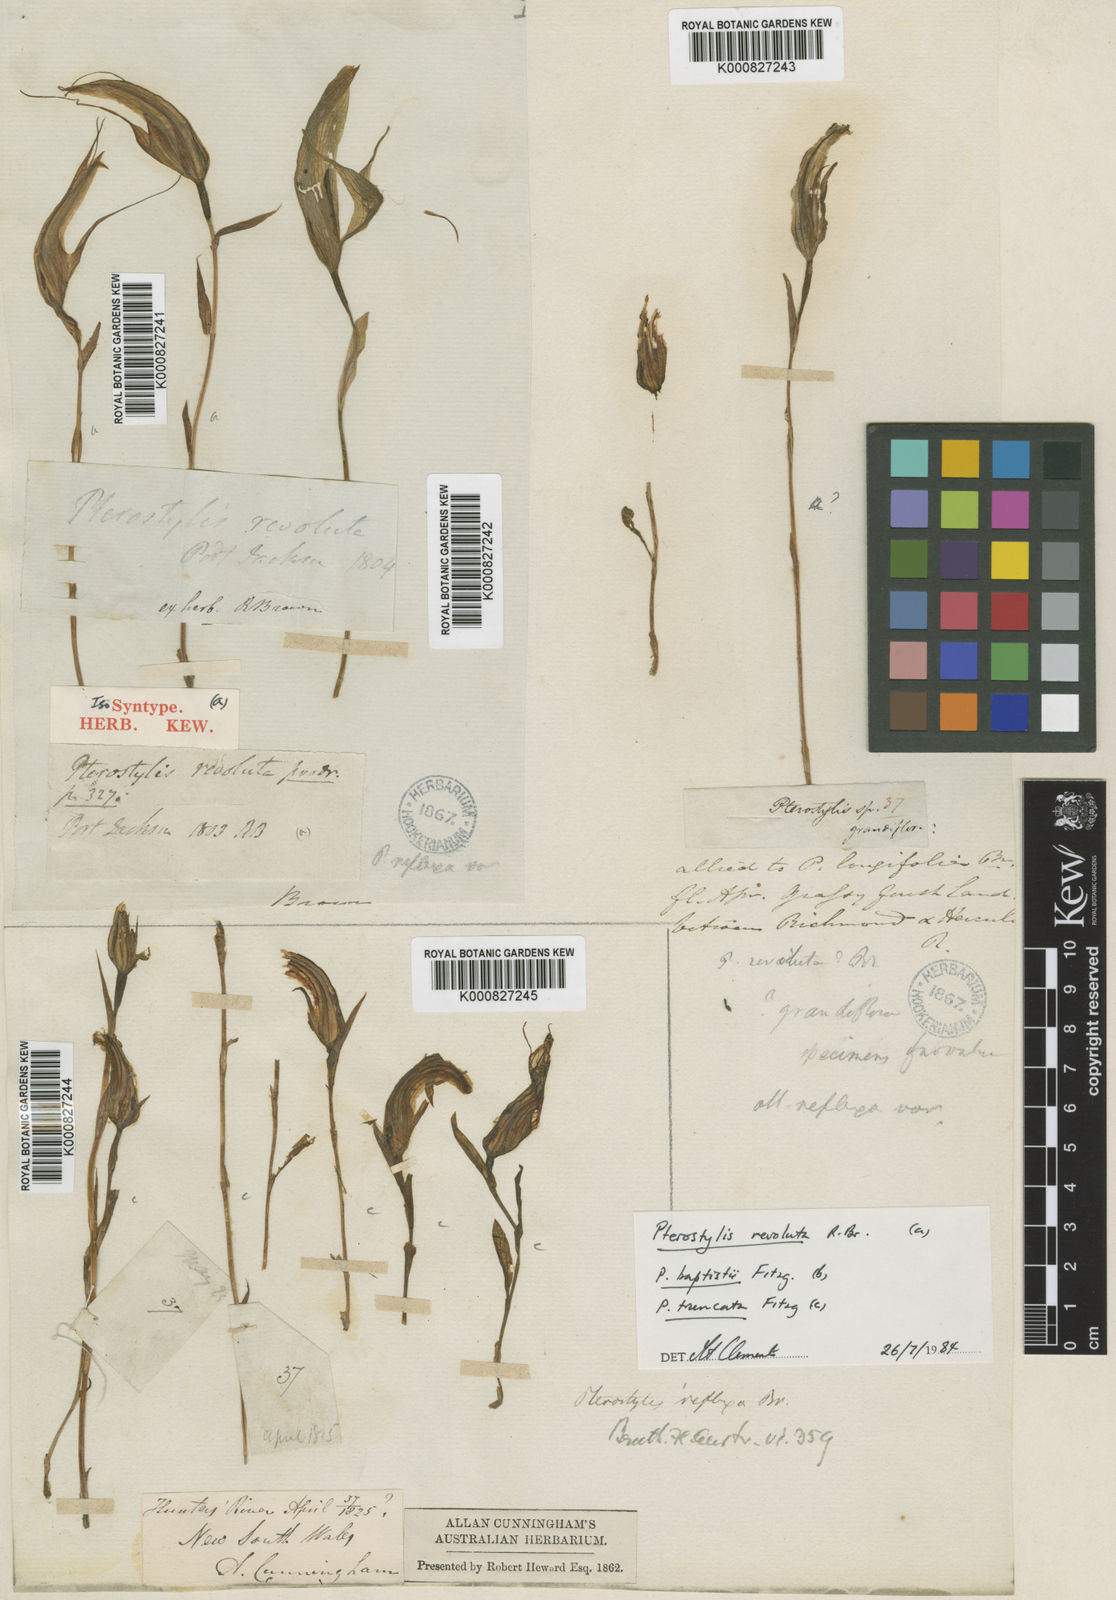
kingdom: Plantae
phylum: Tracheophyta
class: Liliopsida
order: Asparagales
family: Orchidaceae
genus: Pterostylis
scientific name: Pterostylis revoluta
